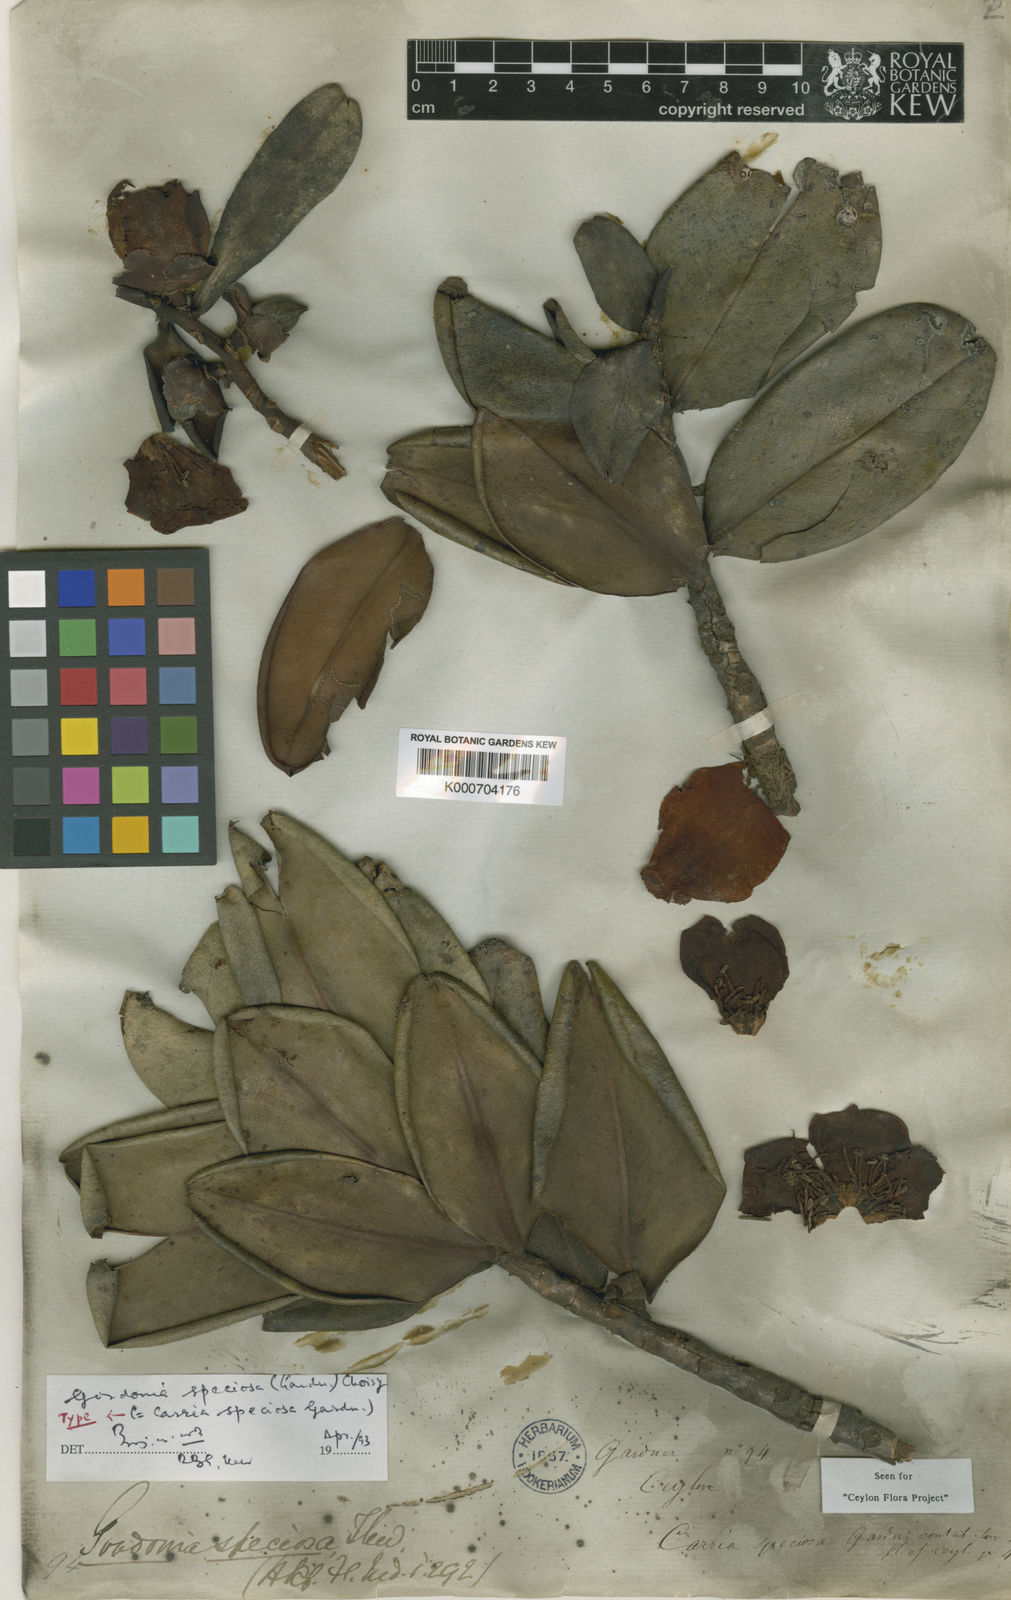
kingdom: Plantae
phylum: Tracheophyta
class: Magnoliopsida
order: Ericales
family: Theaceae
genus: Polyspora
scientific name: Polyspora gardneri
